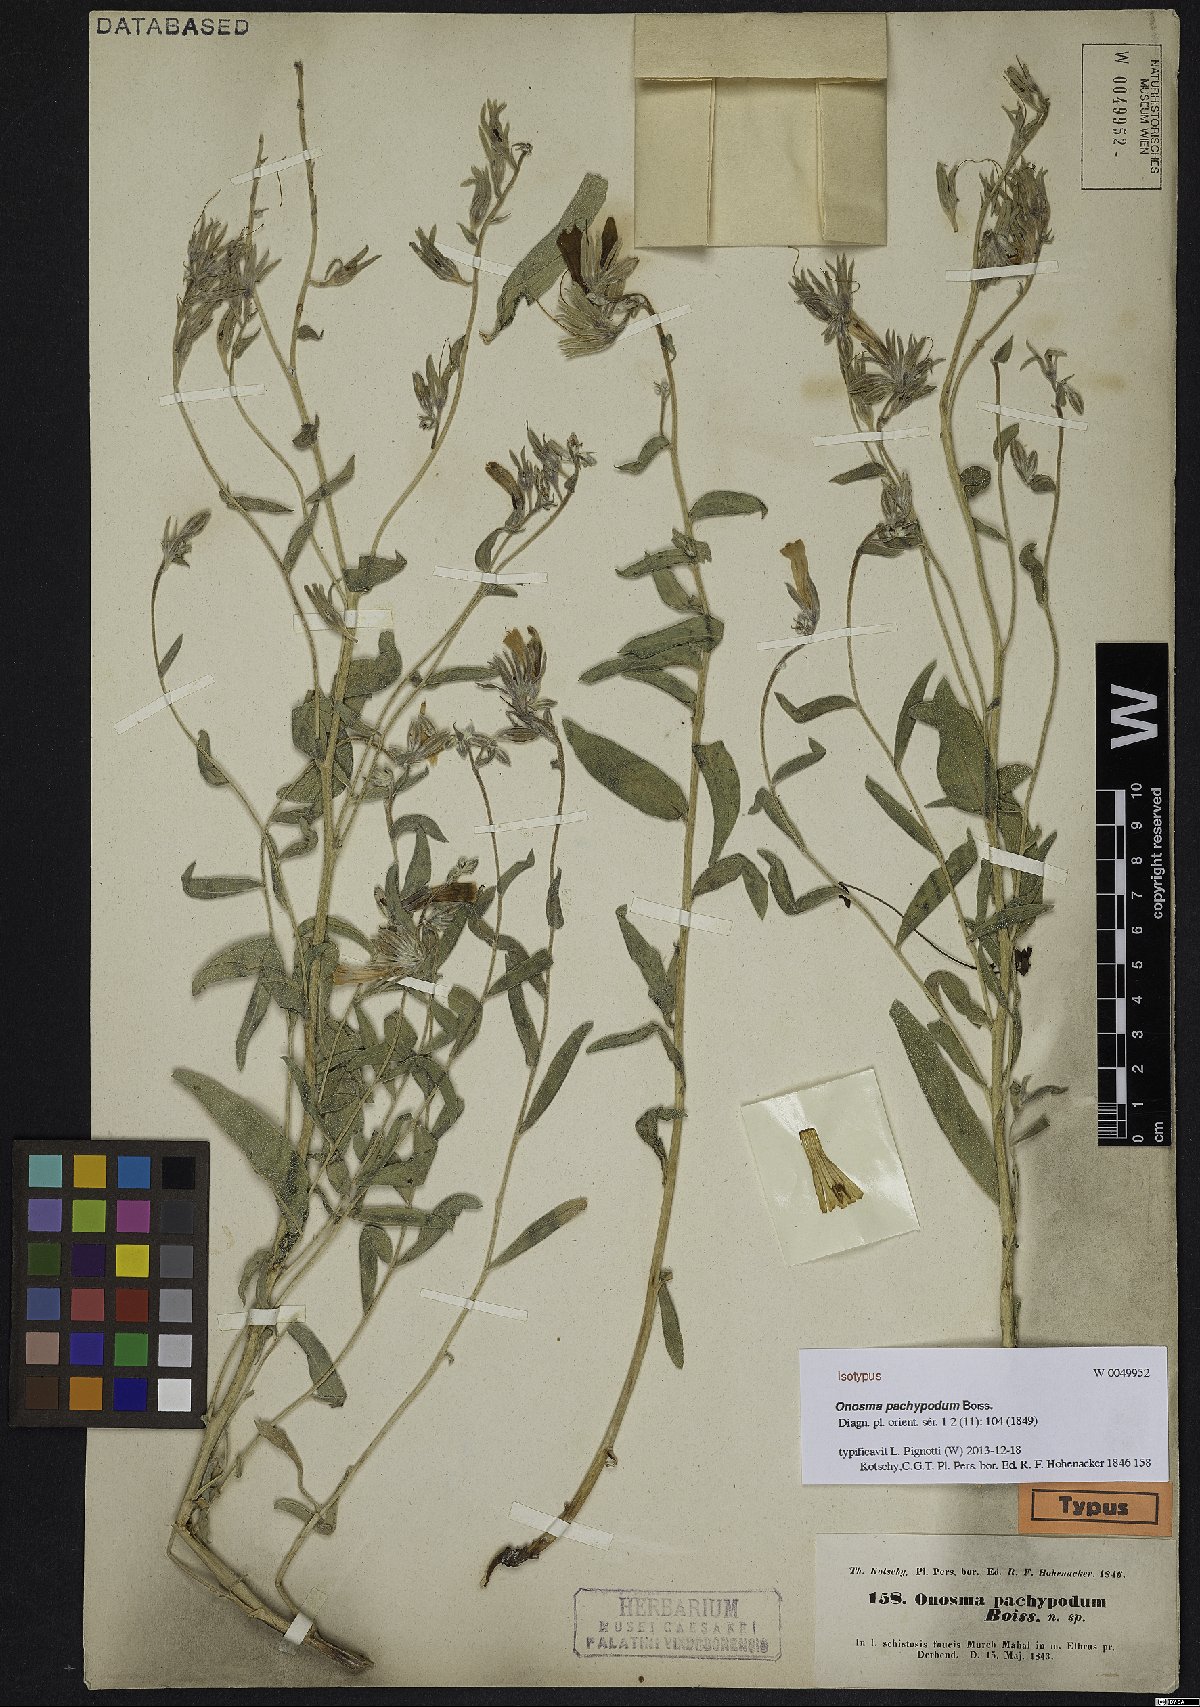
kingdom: Plantae
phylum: Tracheophyta
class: Magnoliopsida
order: Boraginales
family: Boraginaceae
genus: Onosma
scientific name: Onosma pachypoda
